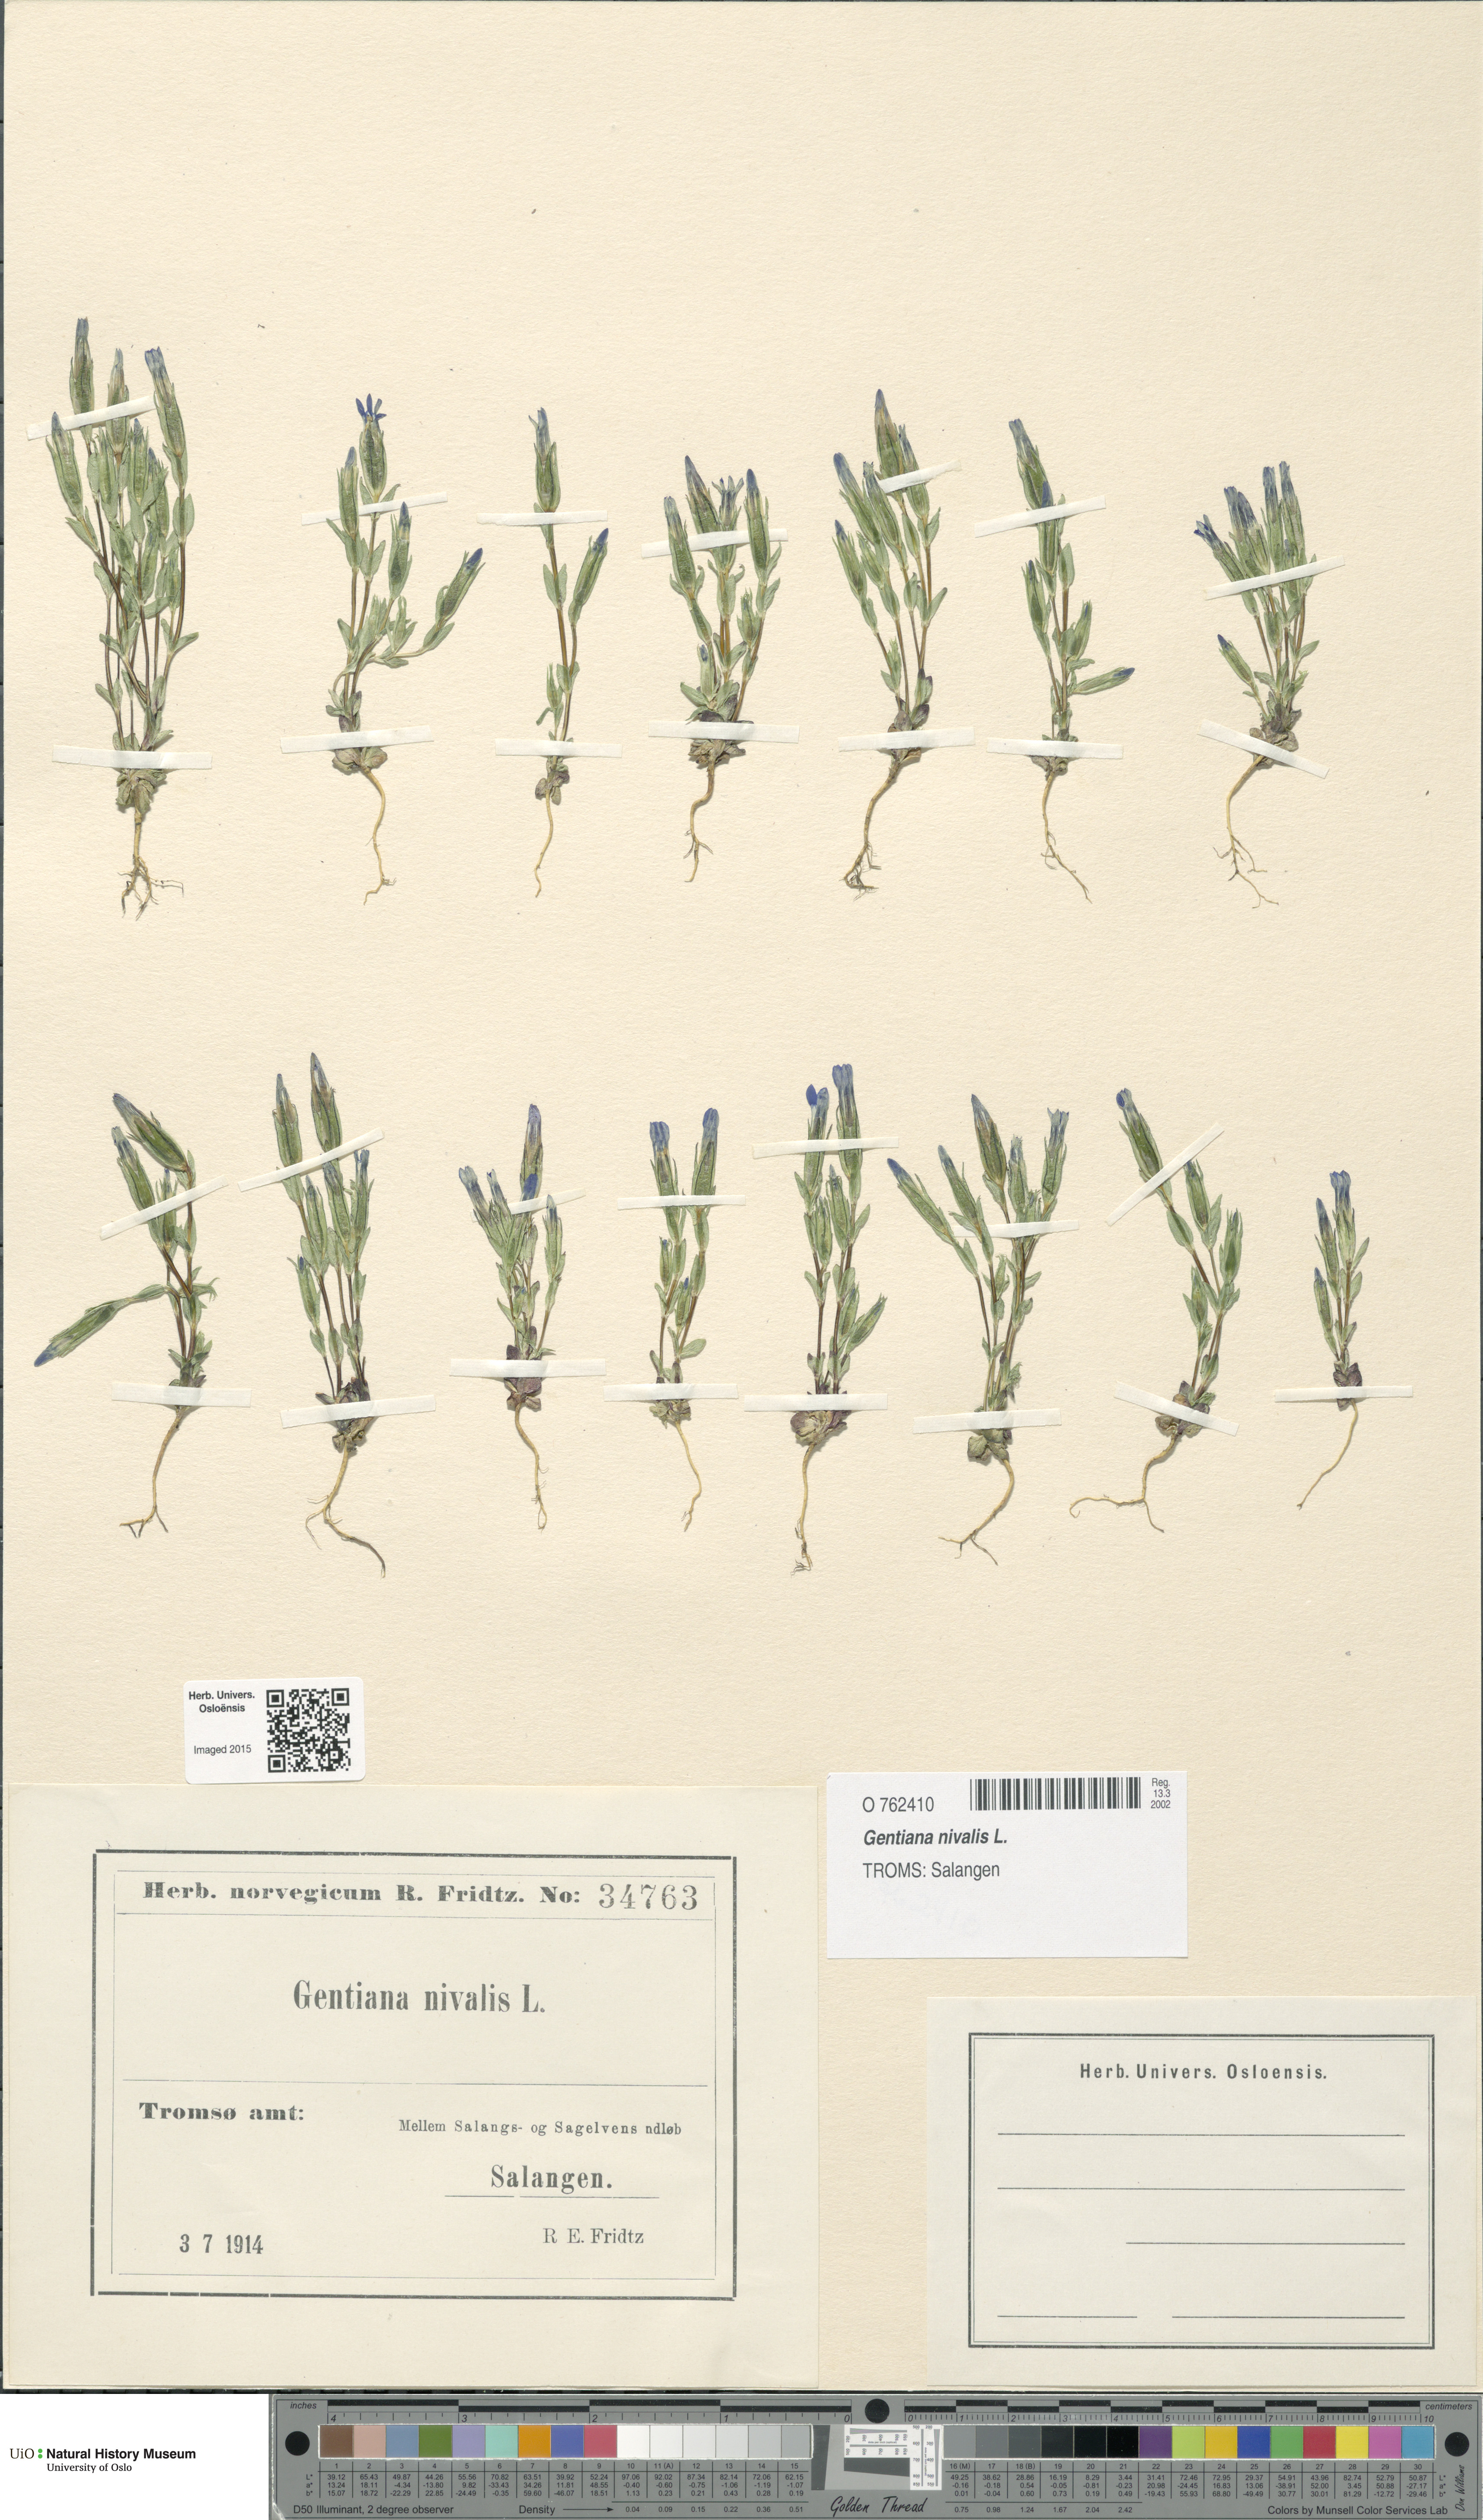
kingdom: Plantae
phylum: Tracheophyta
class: Magnoliopsida
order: Gentianales
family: Gentianaceae
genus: Gentiana
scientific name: Gentiana nivalis
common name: Alpine gentian
